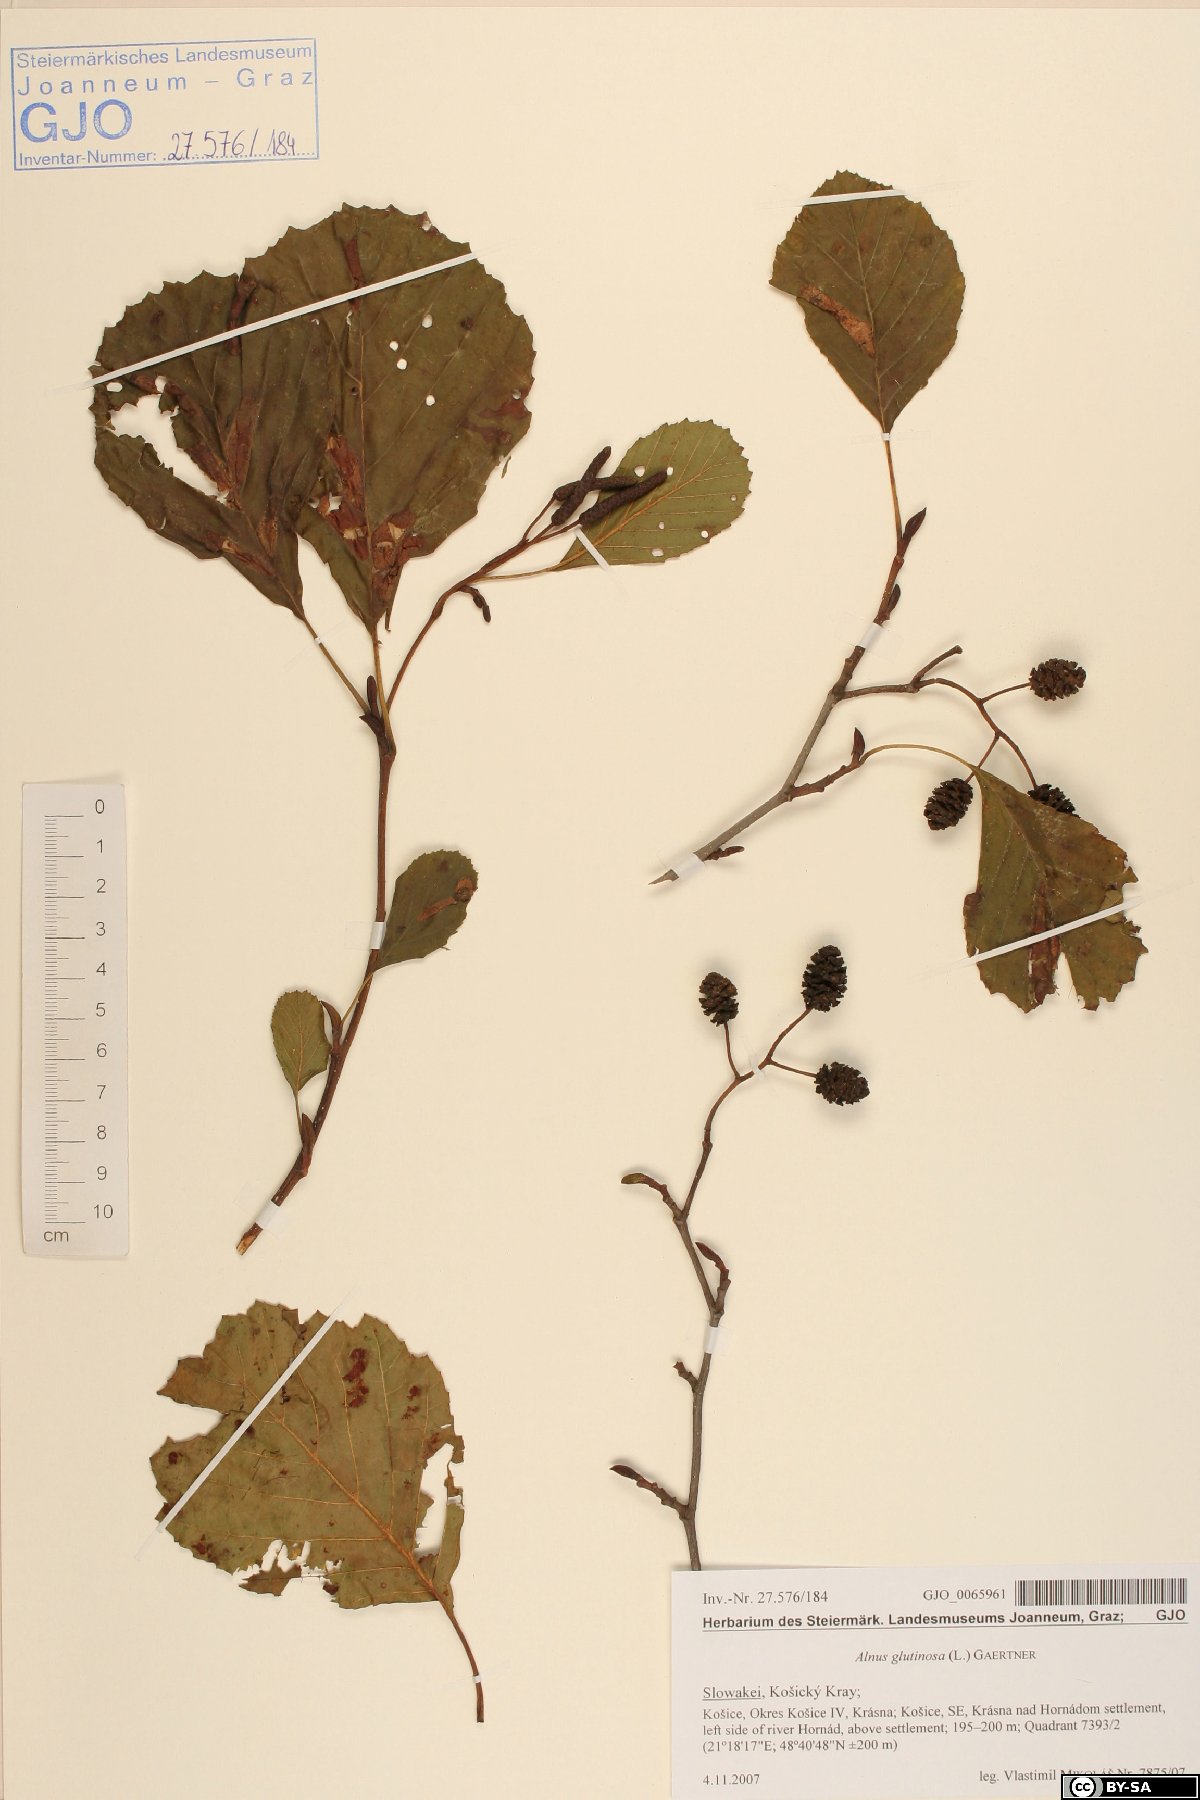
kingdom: Plantae
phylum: Tracheophyta
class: Magnoliopsida
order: Fagales
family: Betulaceae
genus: Alnus
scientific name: Alnus glutinosa
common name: Black alder
